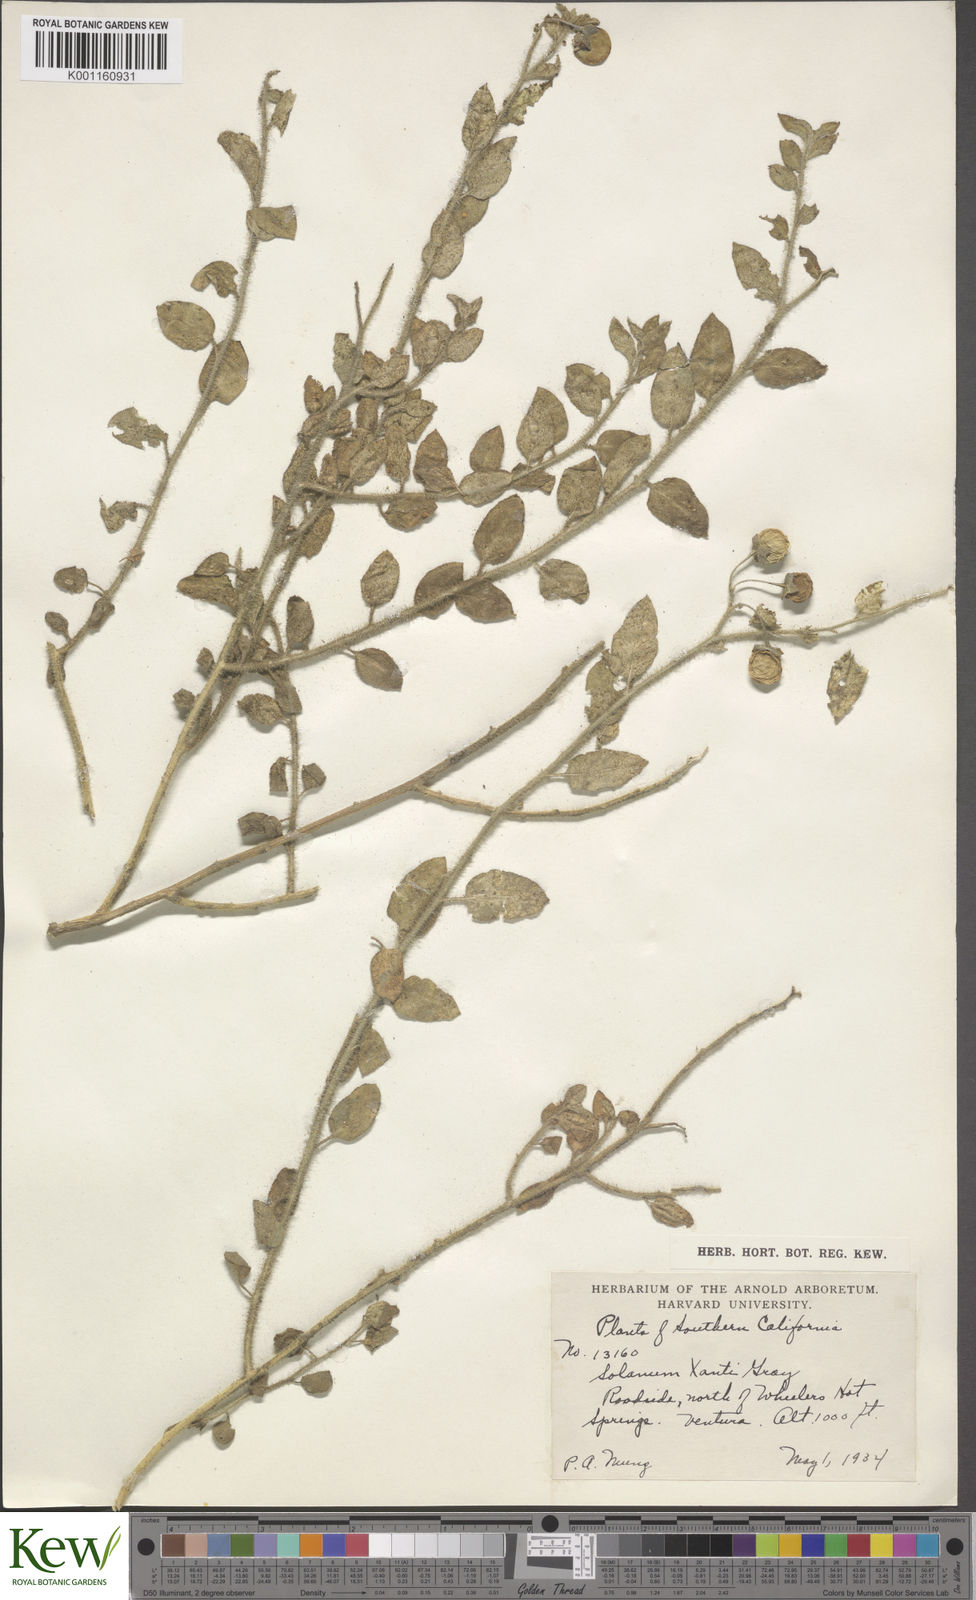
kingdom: Plantae
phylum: Tracheophyta
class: Magnoliopsida
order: Solanales
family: Solanaceae
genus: Solanum
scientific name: Solanum umbelliferum
